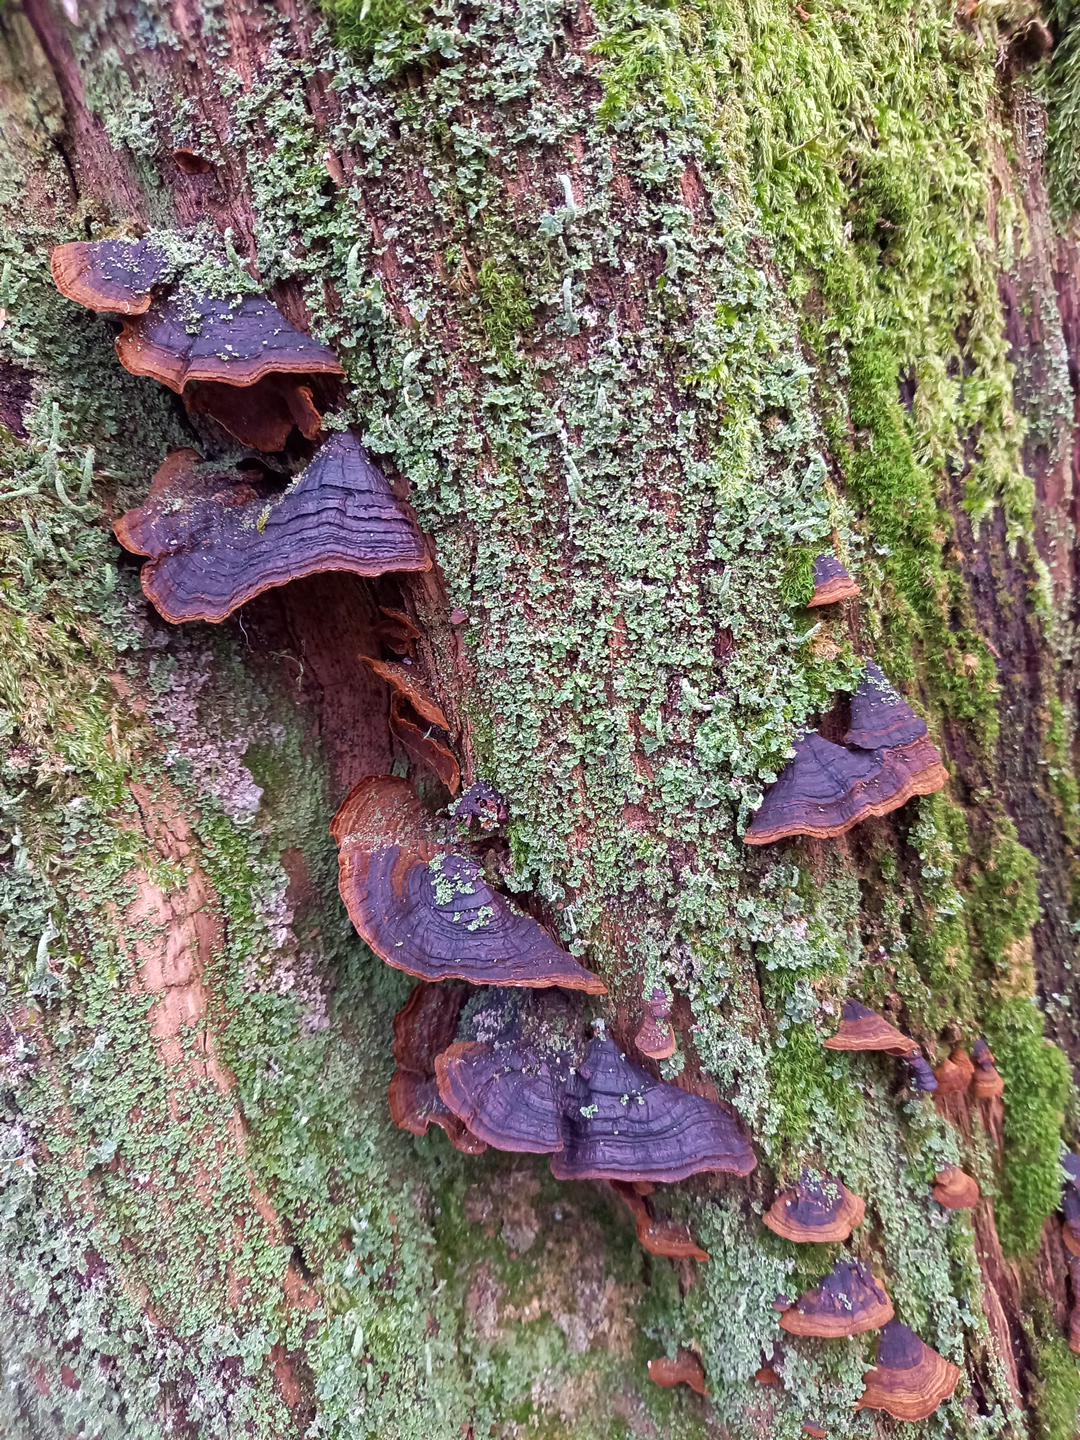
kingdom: Fungi
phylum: Basidiomycota
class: Agaricomycetes
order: Hymenochaetales
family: Hymenochaetaceae
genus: Hymenochaete
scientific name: Hymenochaete rubiginosa
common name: stiv ruslædersvamp
